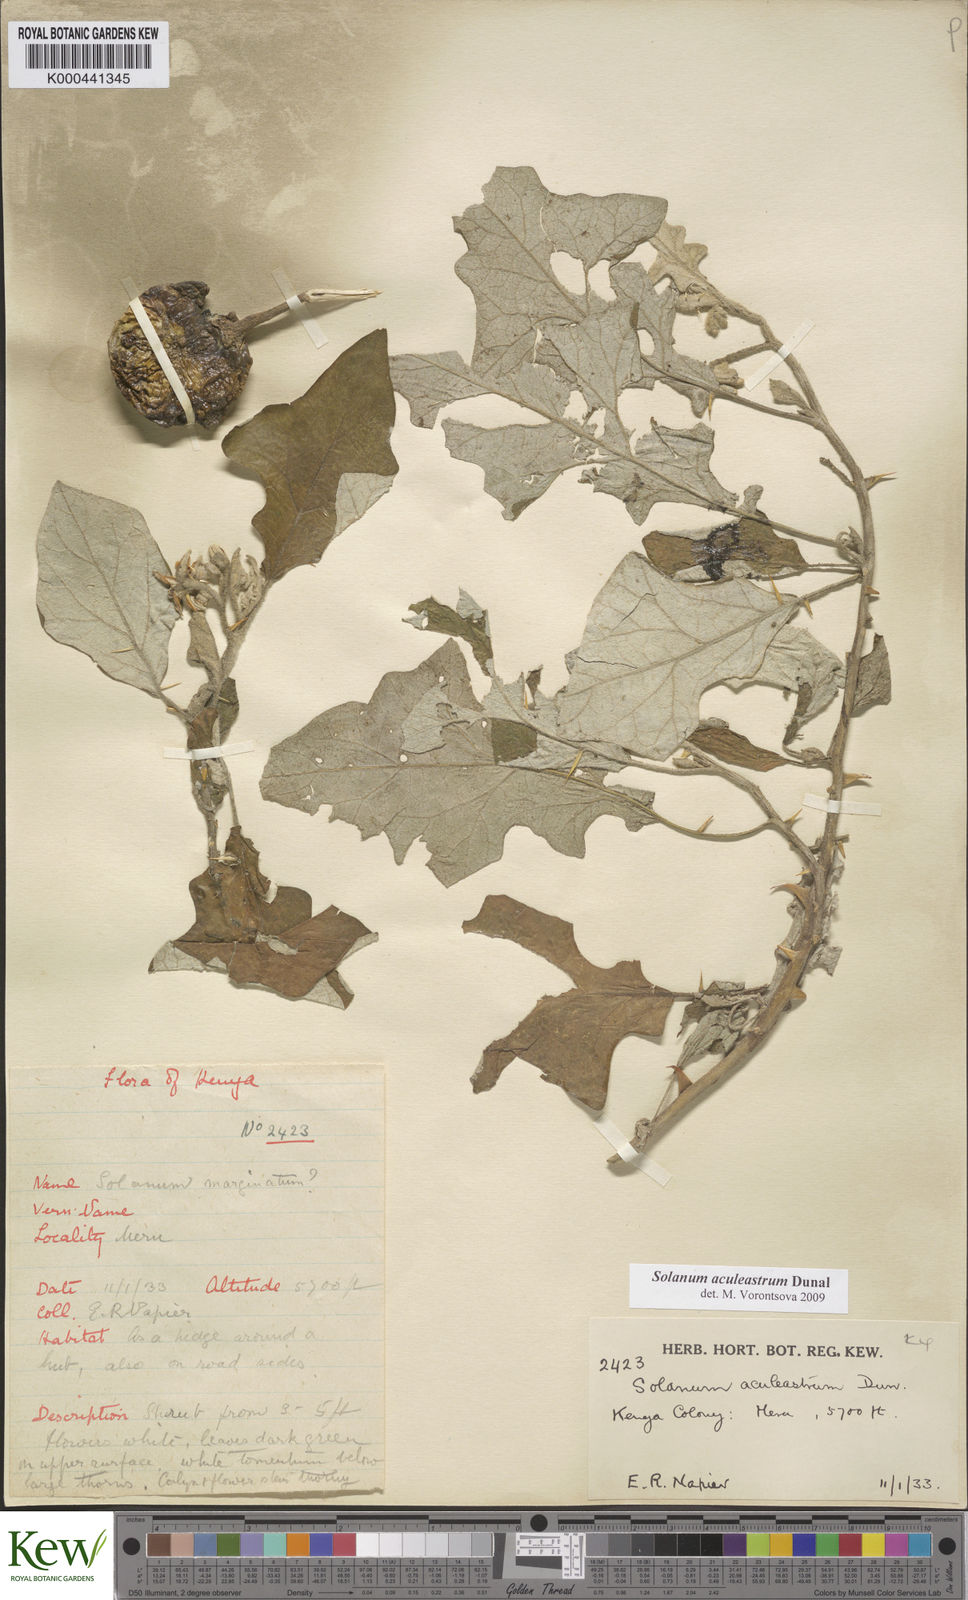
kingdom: Plantae
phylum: Tracheophyta
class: Magnoliopsida
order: Solanales
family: Solanaceae
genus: Solanum
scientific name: Solanum aculeastrum
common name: Goat bitter-apple
